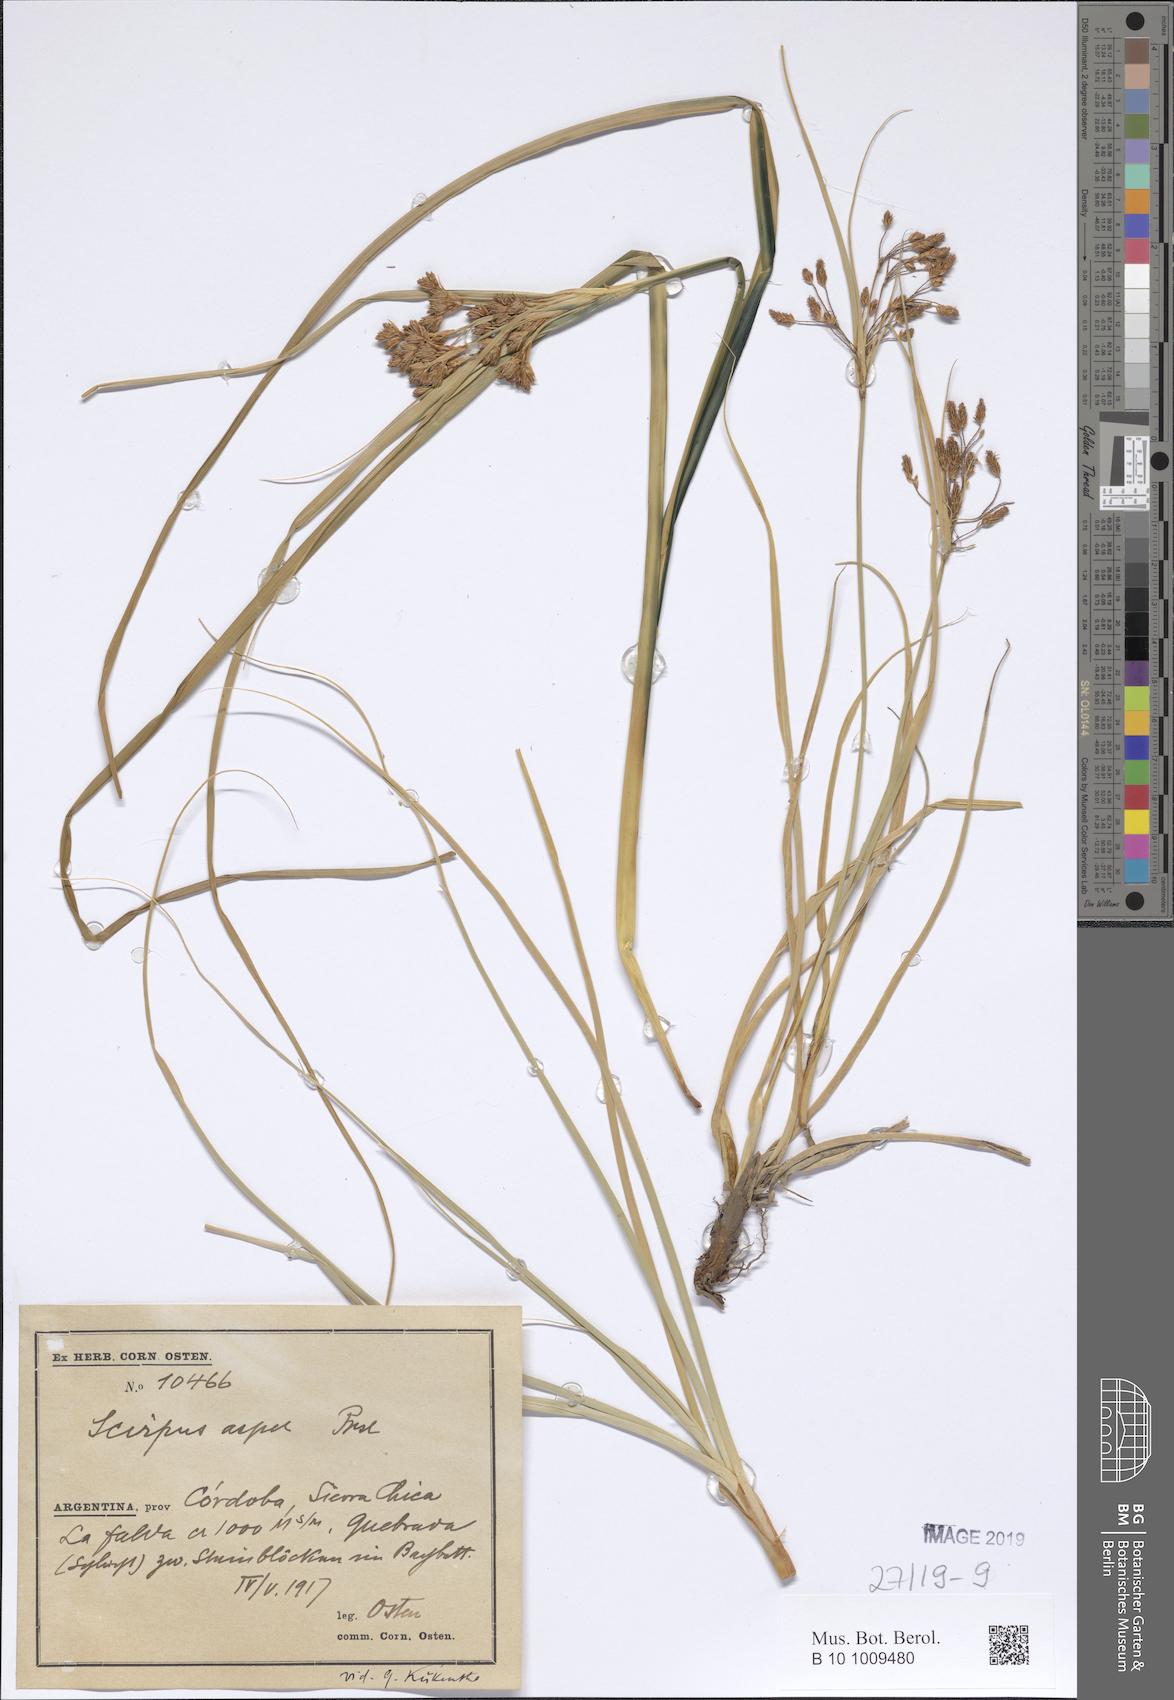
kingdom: Plantae
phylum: Tracheophyta
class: Liliopsida
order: Poales
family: Cyperaceae
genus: Rhodoscirpus
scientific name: Rhodoscirpus asper
